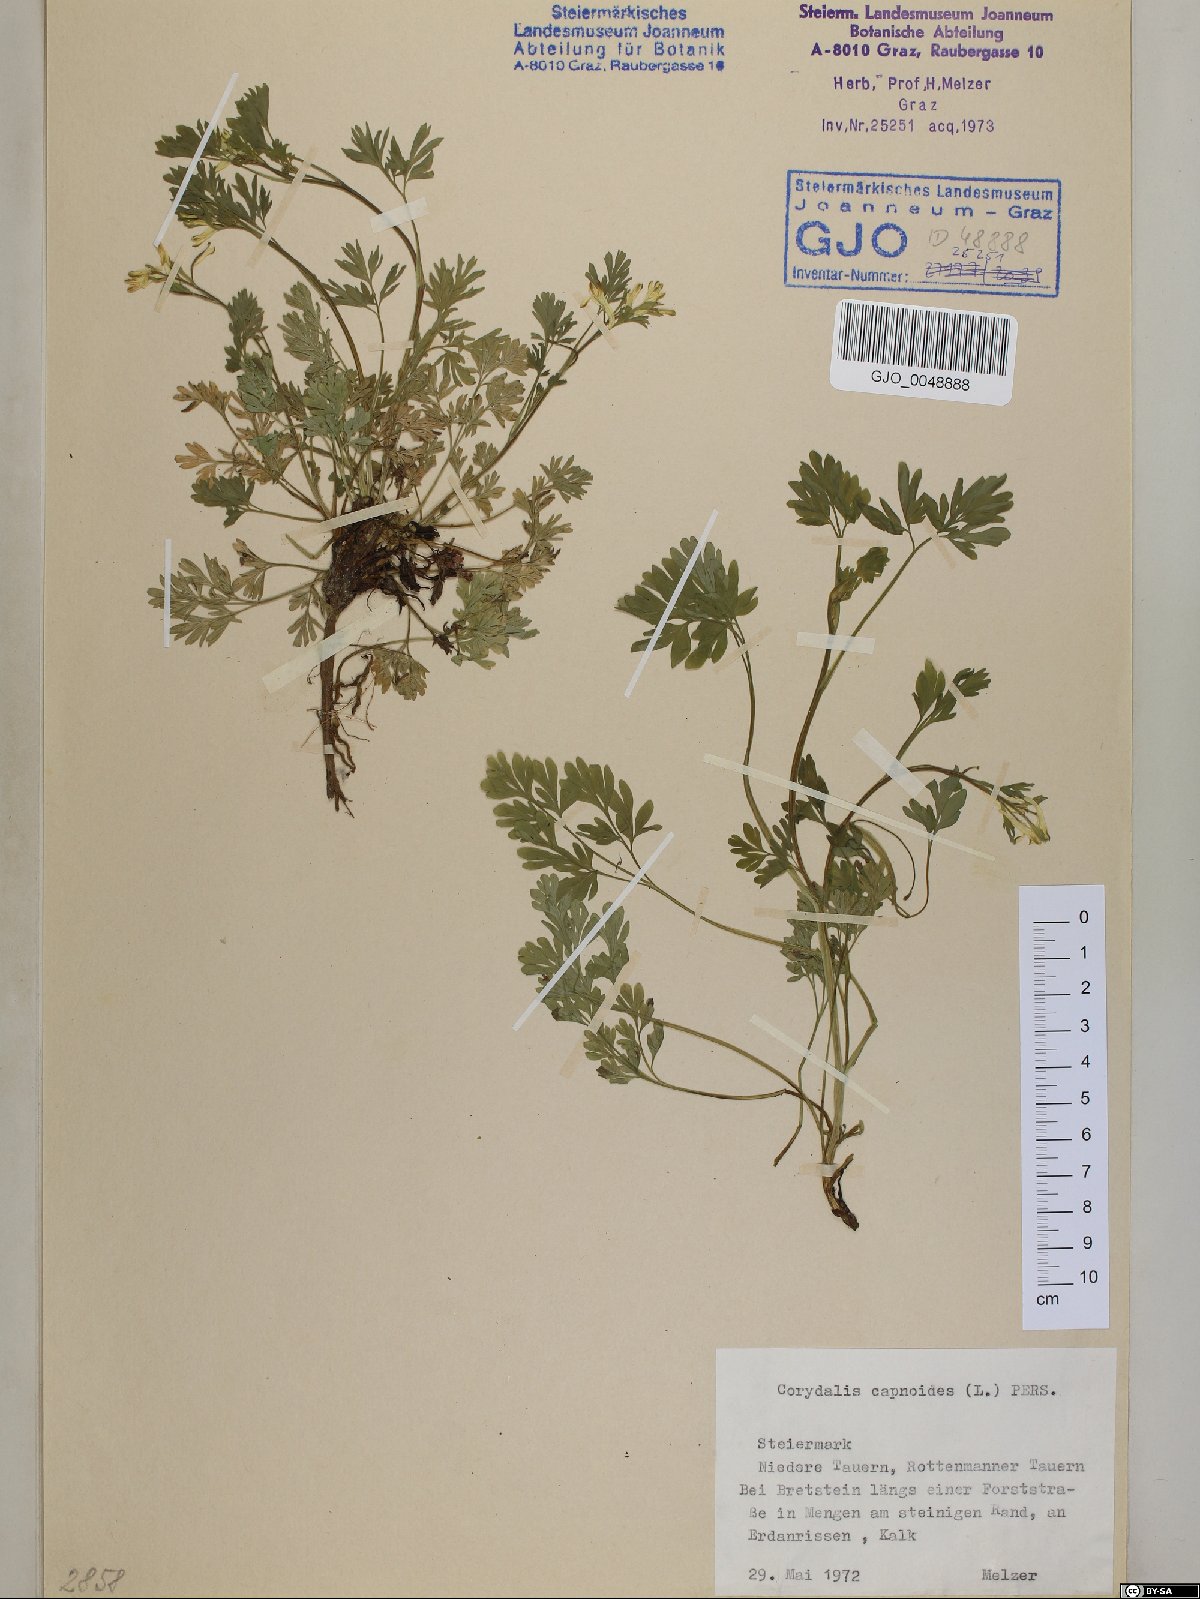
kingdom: Plantae
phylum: Tracheophyta
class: Magnoliopsida
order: Ranunculales
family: Papaveraceae
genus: Corydalis
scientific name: Corydalis capnoides
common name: Beaked corydalis
